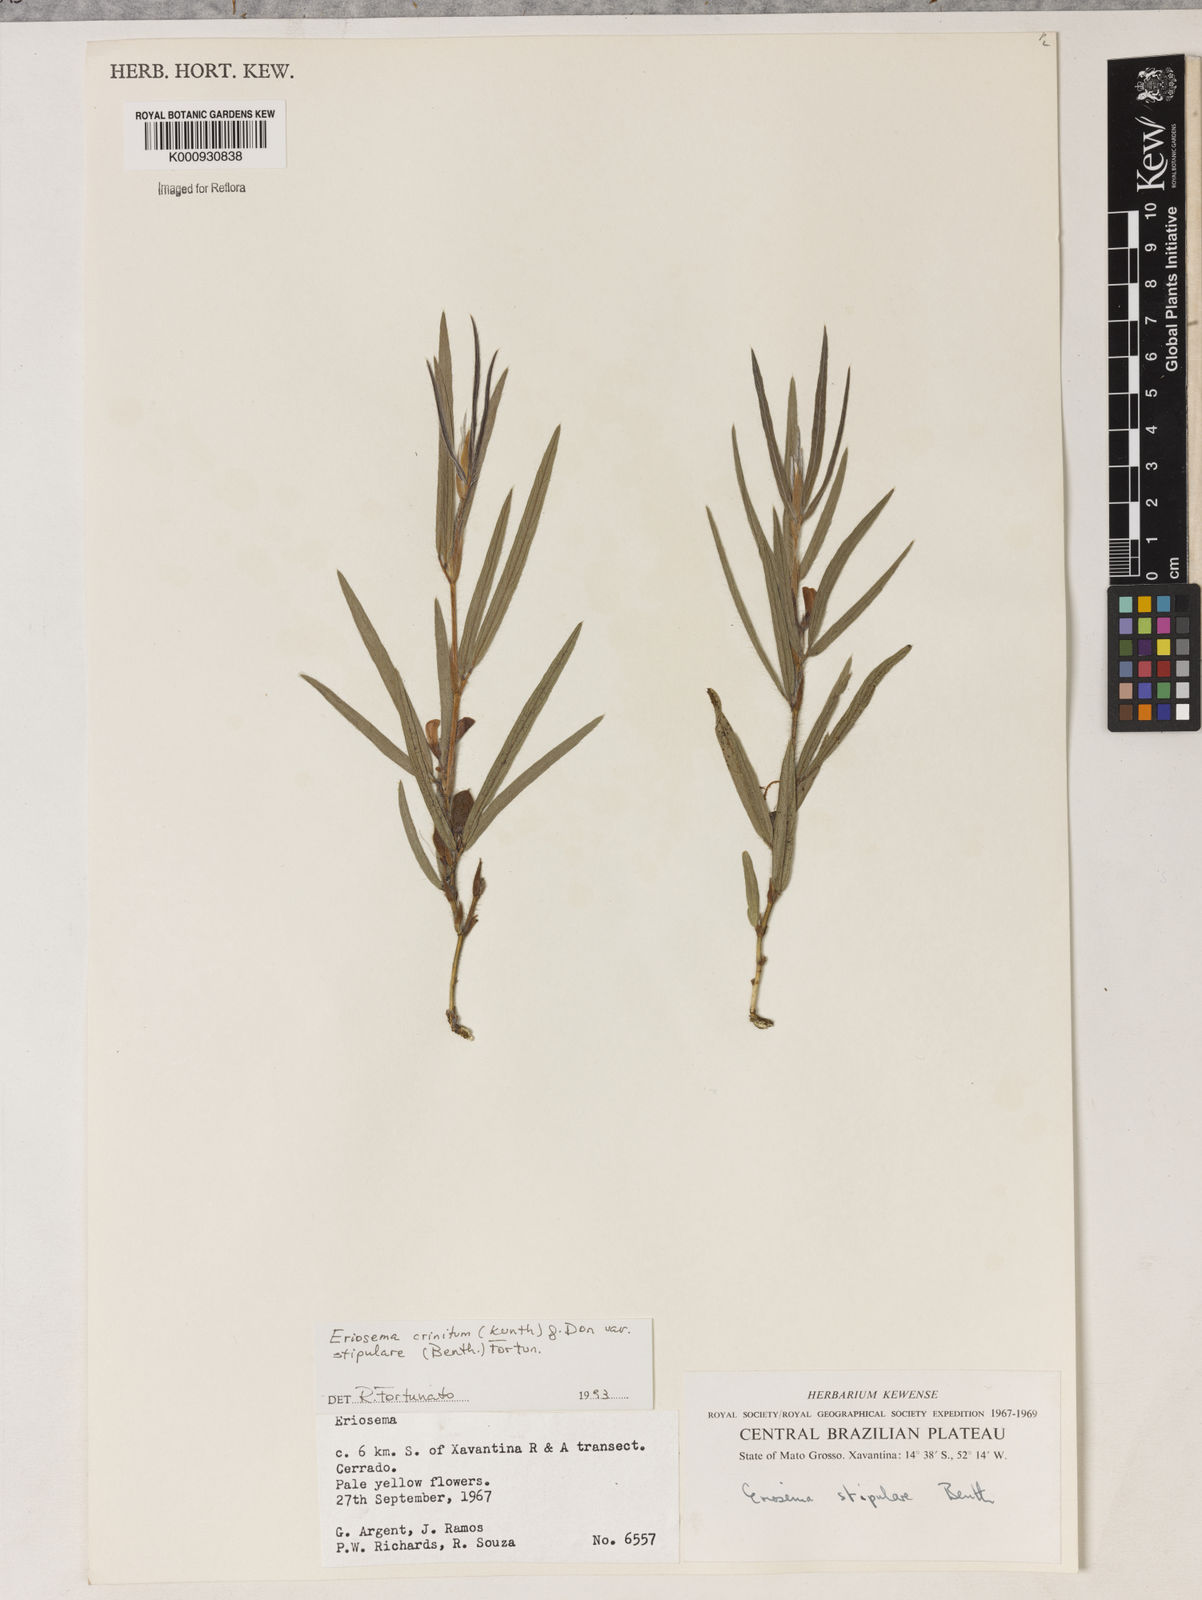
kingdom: Plantae
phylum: Tracheophyta
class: Magnoliopsida
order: Fabales
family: Fabaceae
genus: Eriosema
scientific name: Eriosema crinitum
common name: Sand pea
